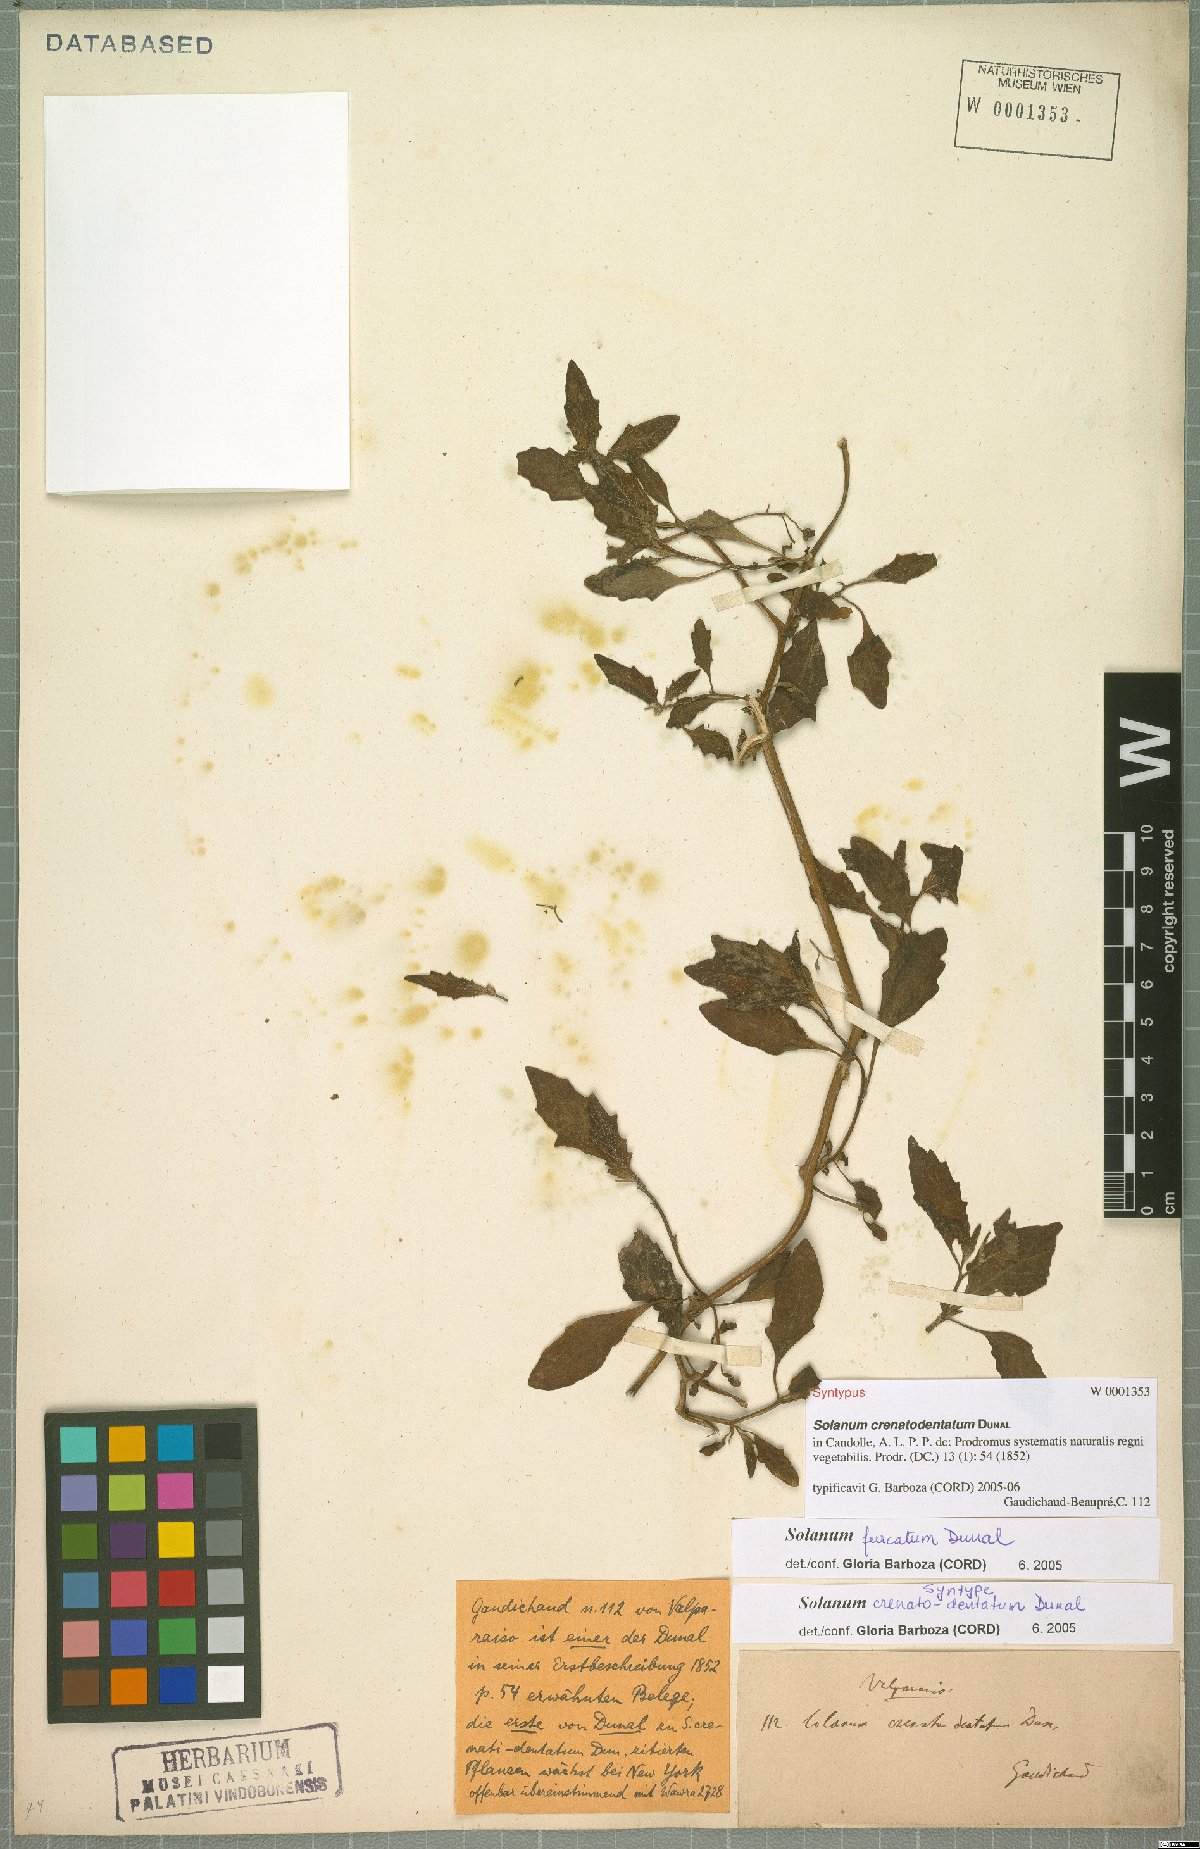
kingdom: Plantae
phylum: Tracheophyta
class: Magnoliopsida
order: Solanales
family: Solanaceae
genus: Solanum
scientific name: Solanum furcatum
